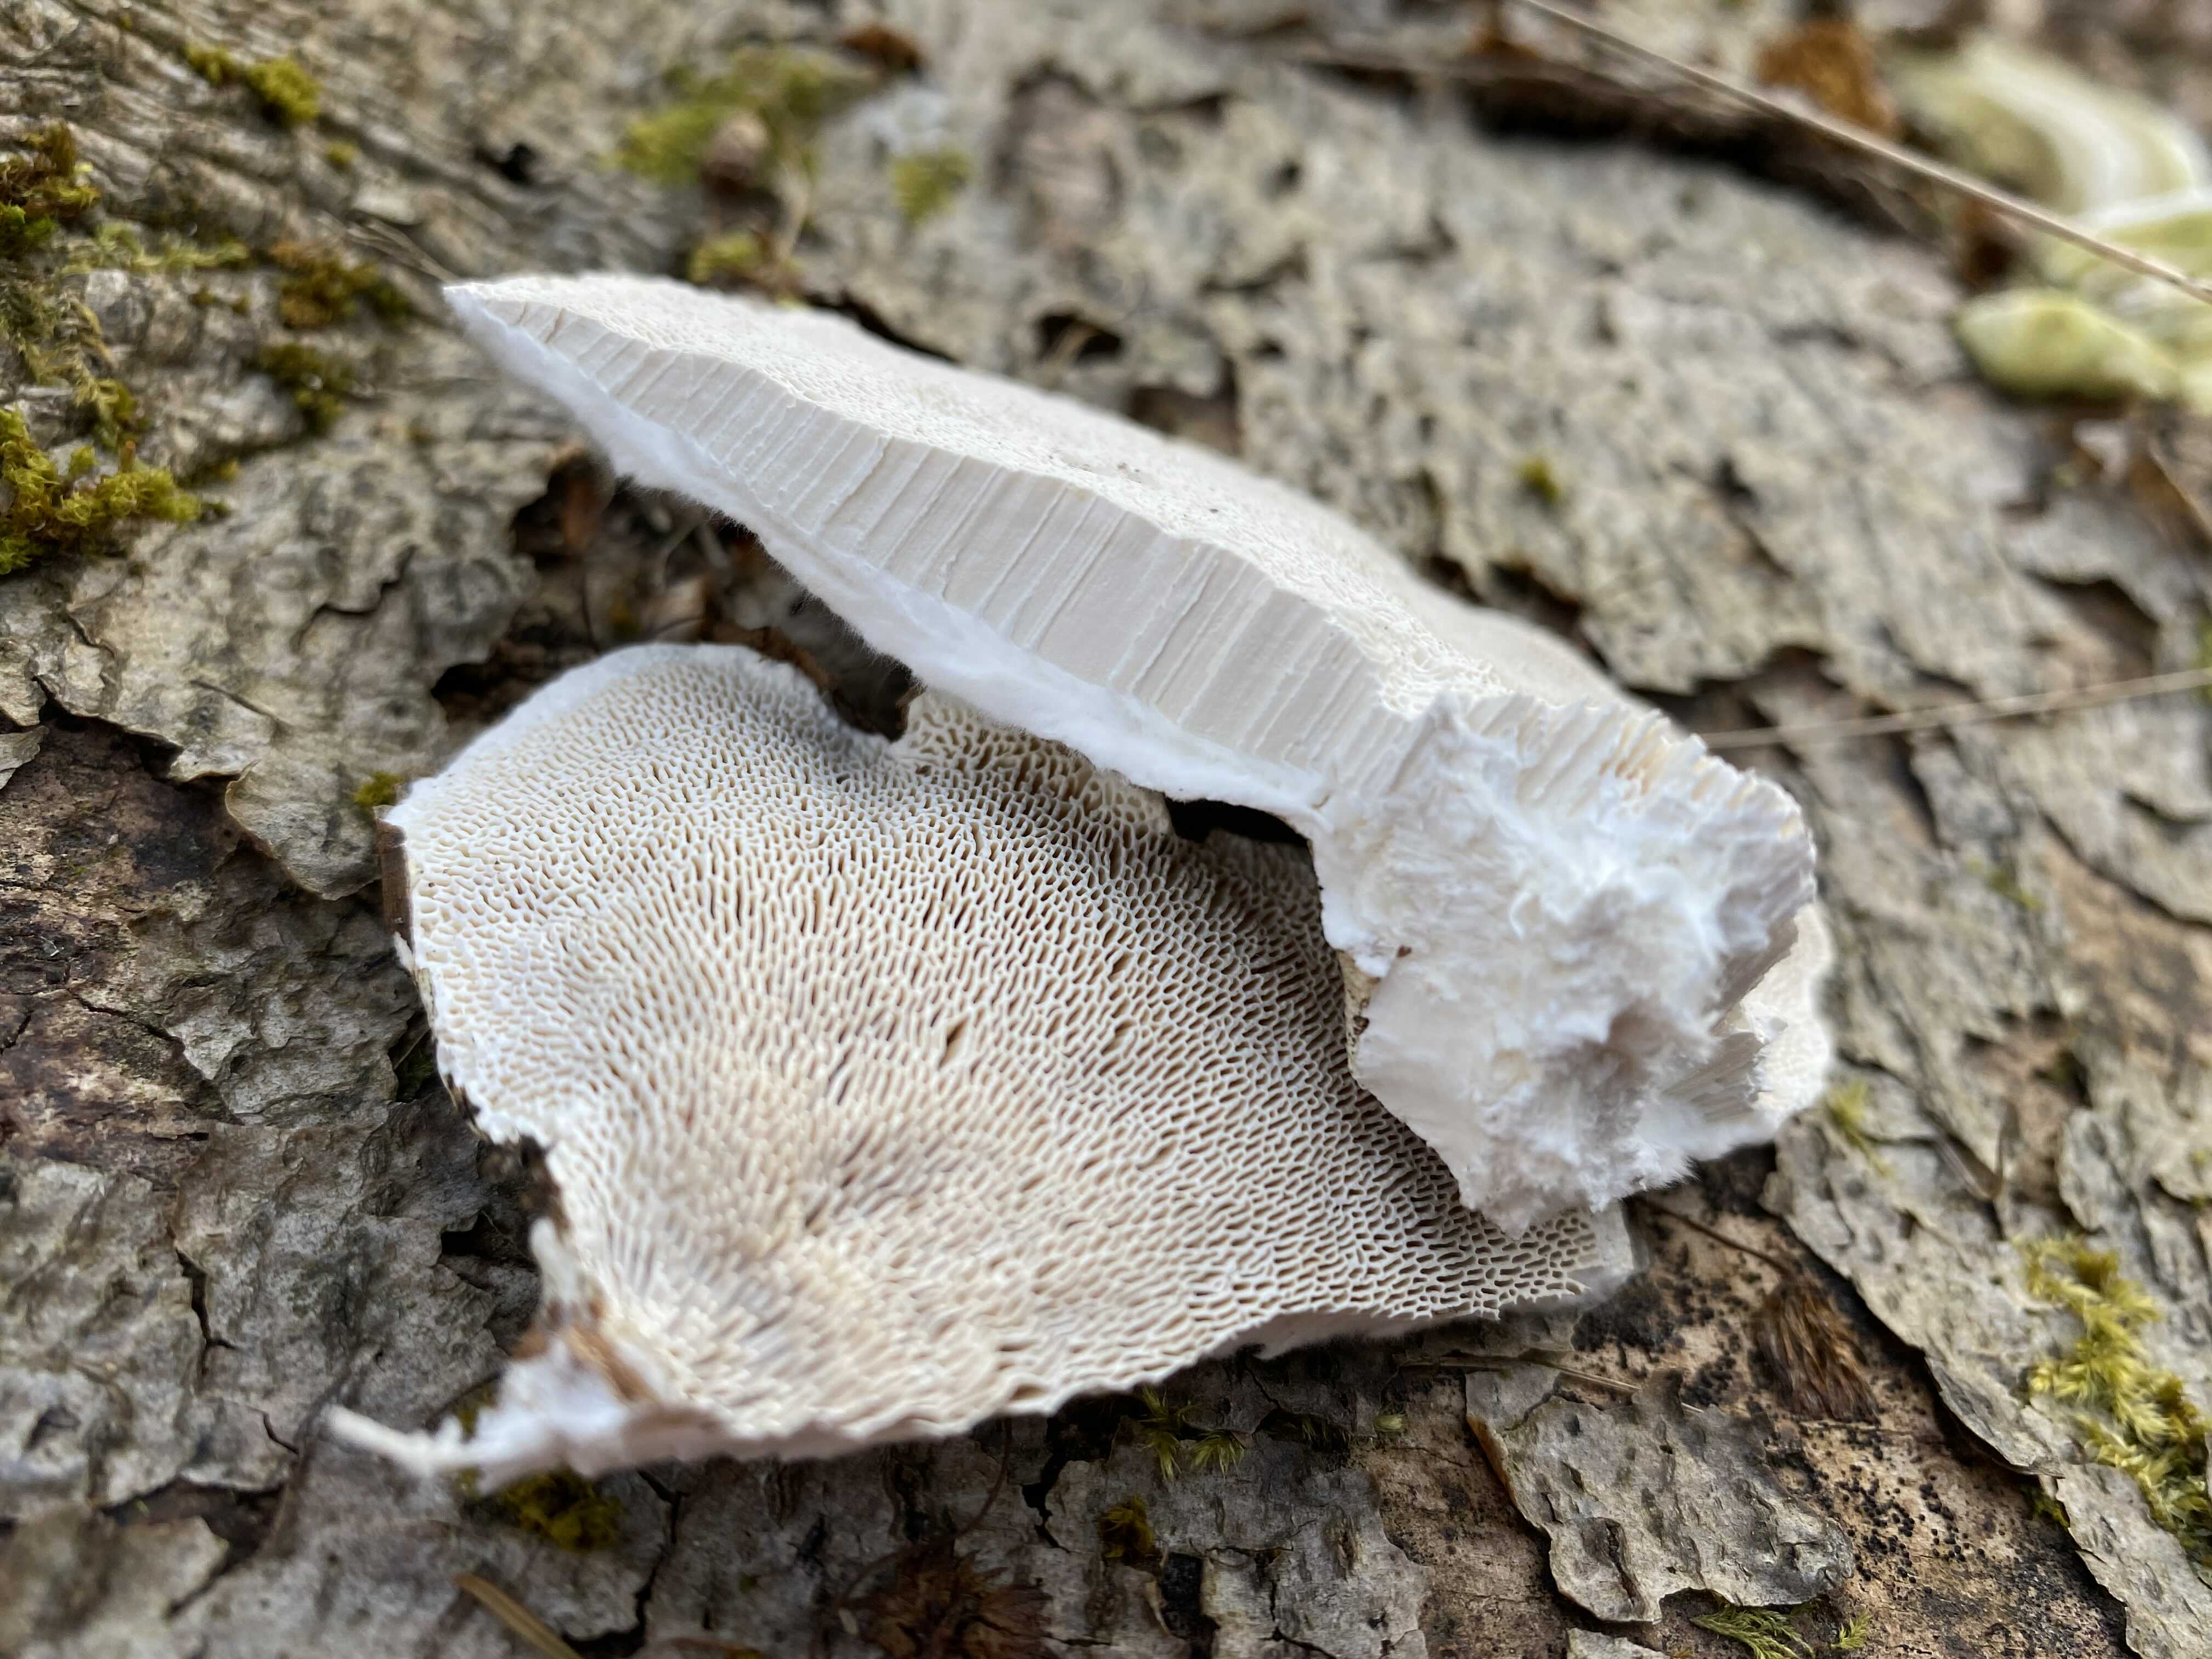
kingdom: Fungi
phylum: Basidiomycota
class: Agaricomycetes
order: Polyporales
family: Polyporaceae
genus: Trametes
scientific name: Trametes gibbosa
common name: puklet læderporesvamp
